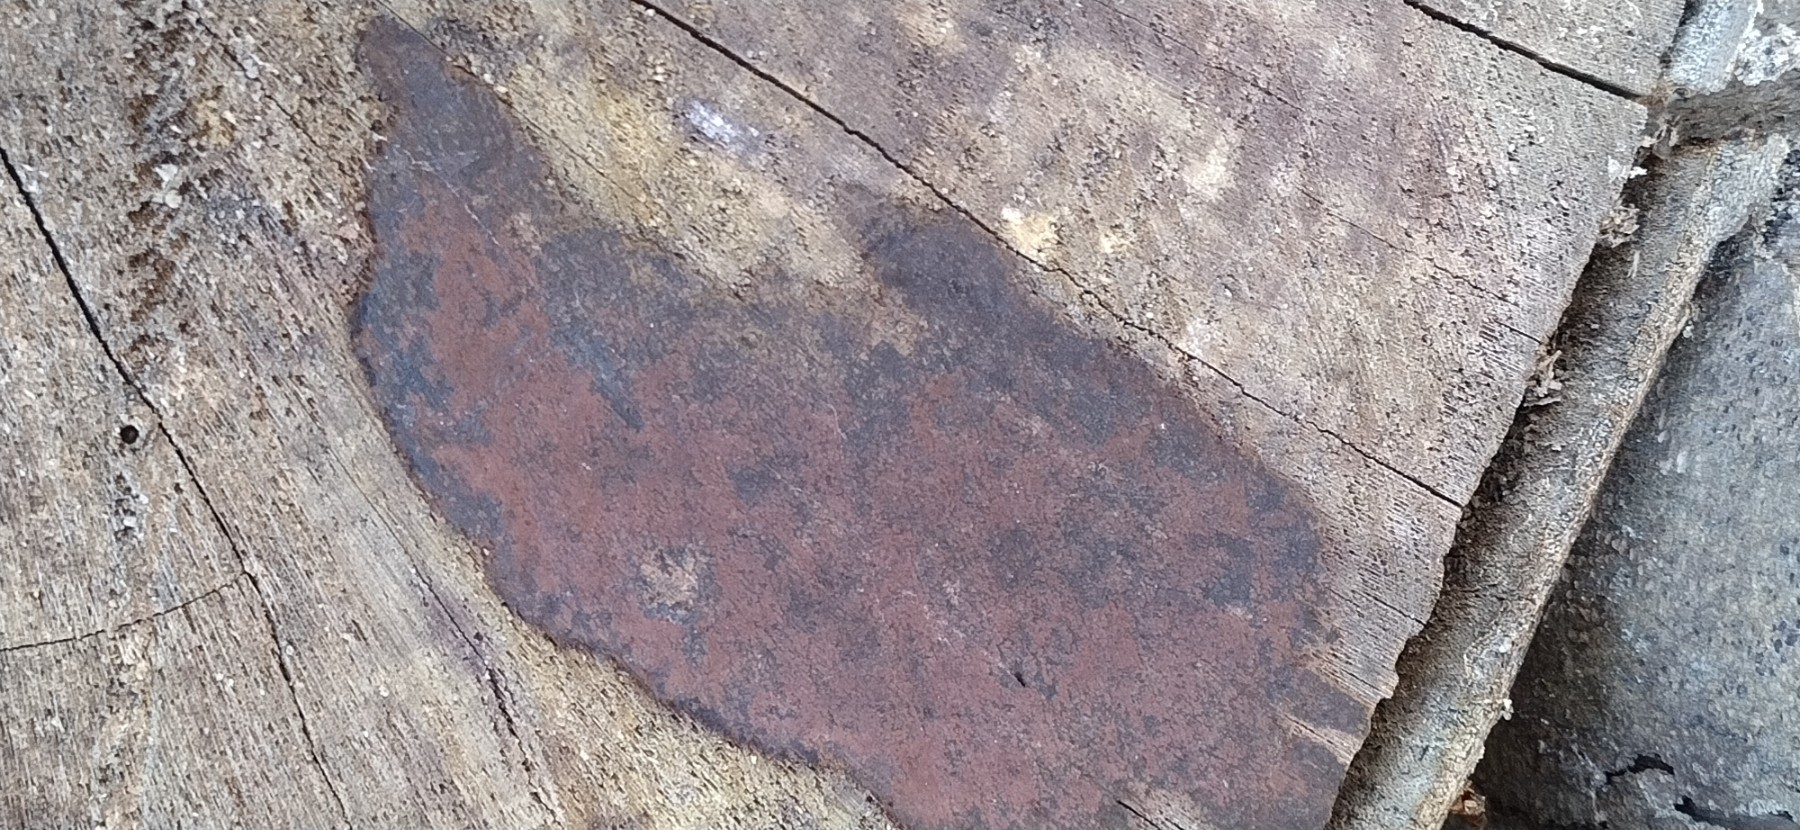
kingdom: Fungi
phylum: Ascomycota
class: Sordariomycetes
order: Xylariales
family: Hypoxylaceae
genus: Hypoxylon
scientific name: Hypoxylon macrocarpum
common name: skorpe-kulbær
